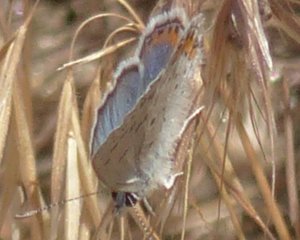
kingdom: Animalia
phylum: Arthropoda
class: Insecta
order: Lepidoptera
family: Lycaenidae
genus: Plebejus
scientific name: Plebejus lupini
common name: Lupine Blue
